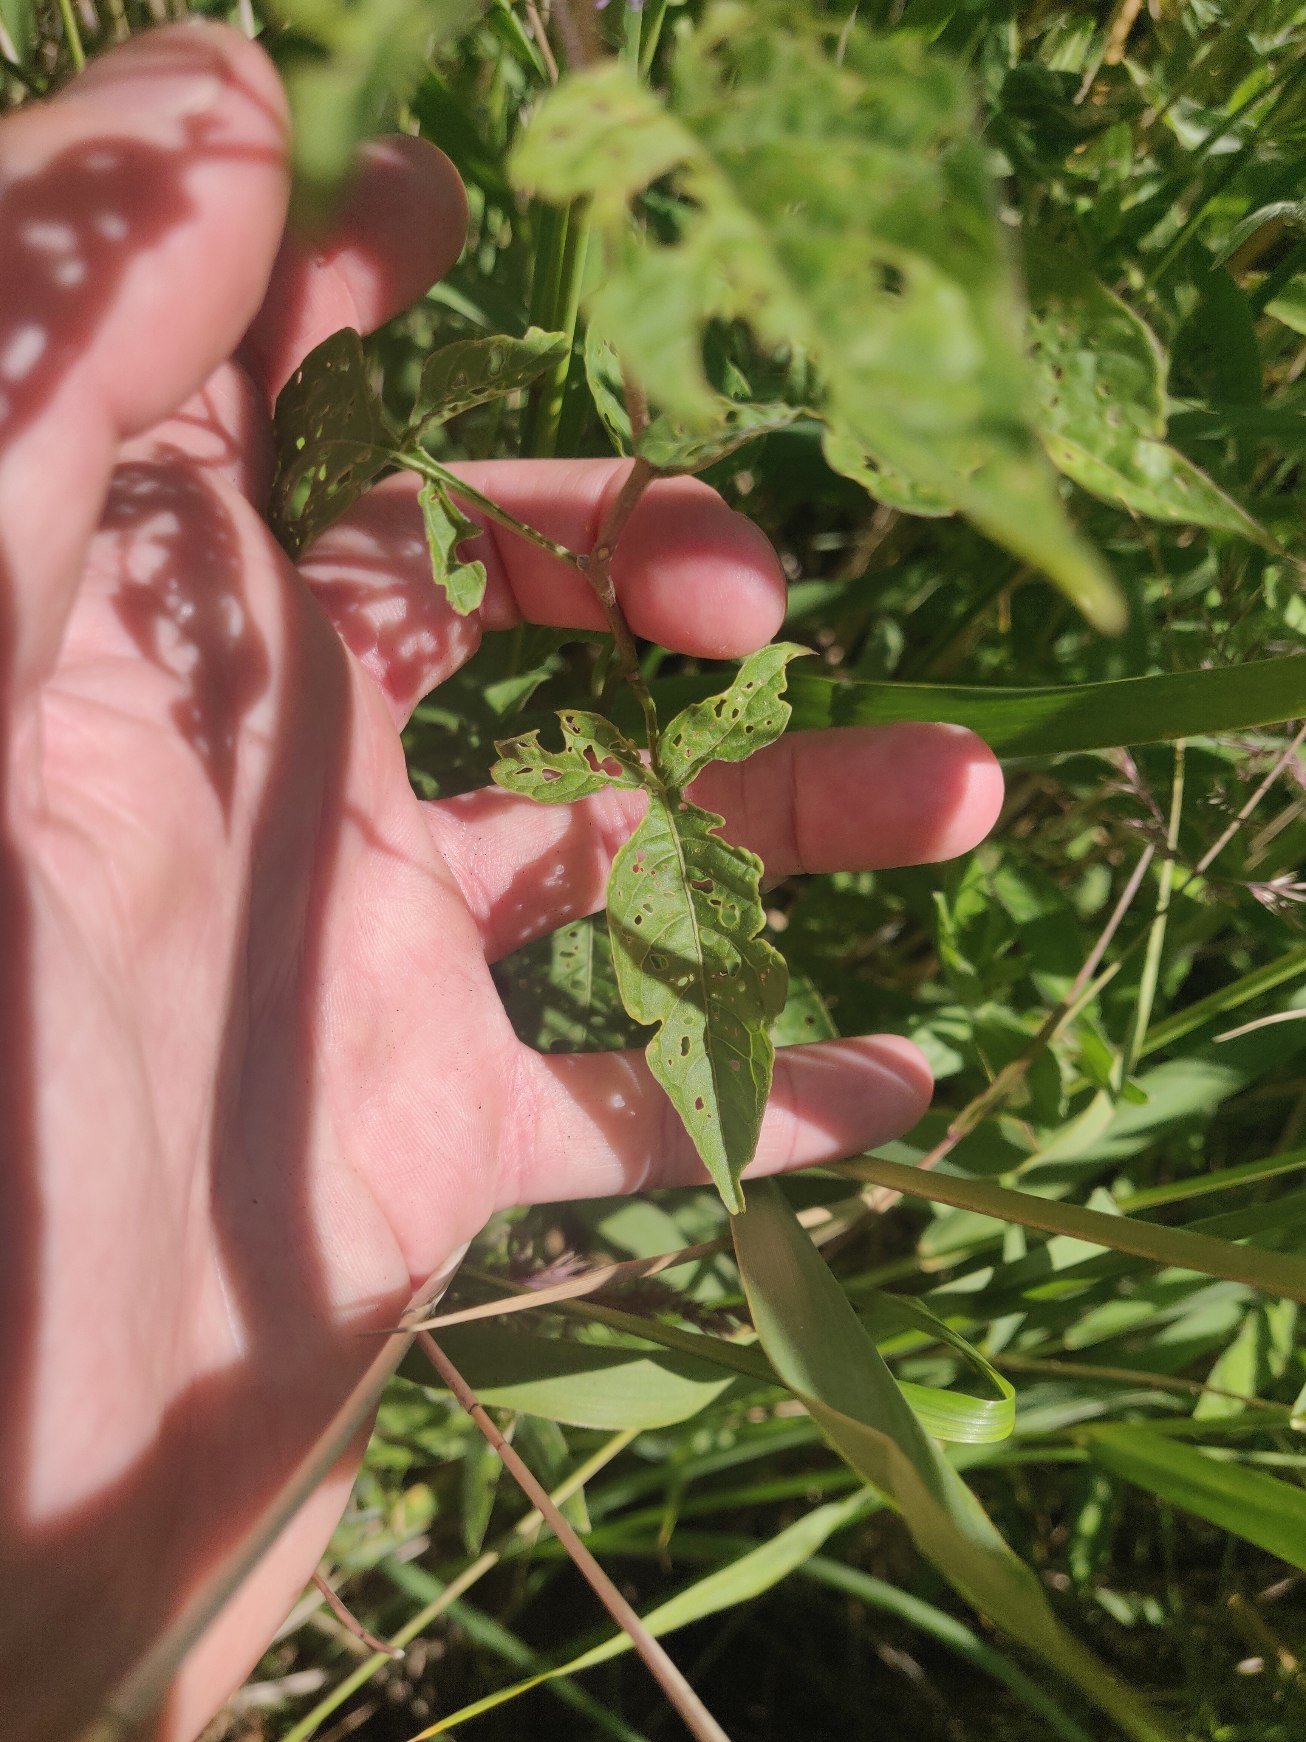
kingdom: Plantae
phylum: Tracheophyta
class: Magnoliopsida
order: Solanales
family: Solanaceae
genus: Solanum
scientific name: Solanum dulcamara
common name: Bittersød natskygge
